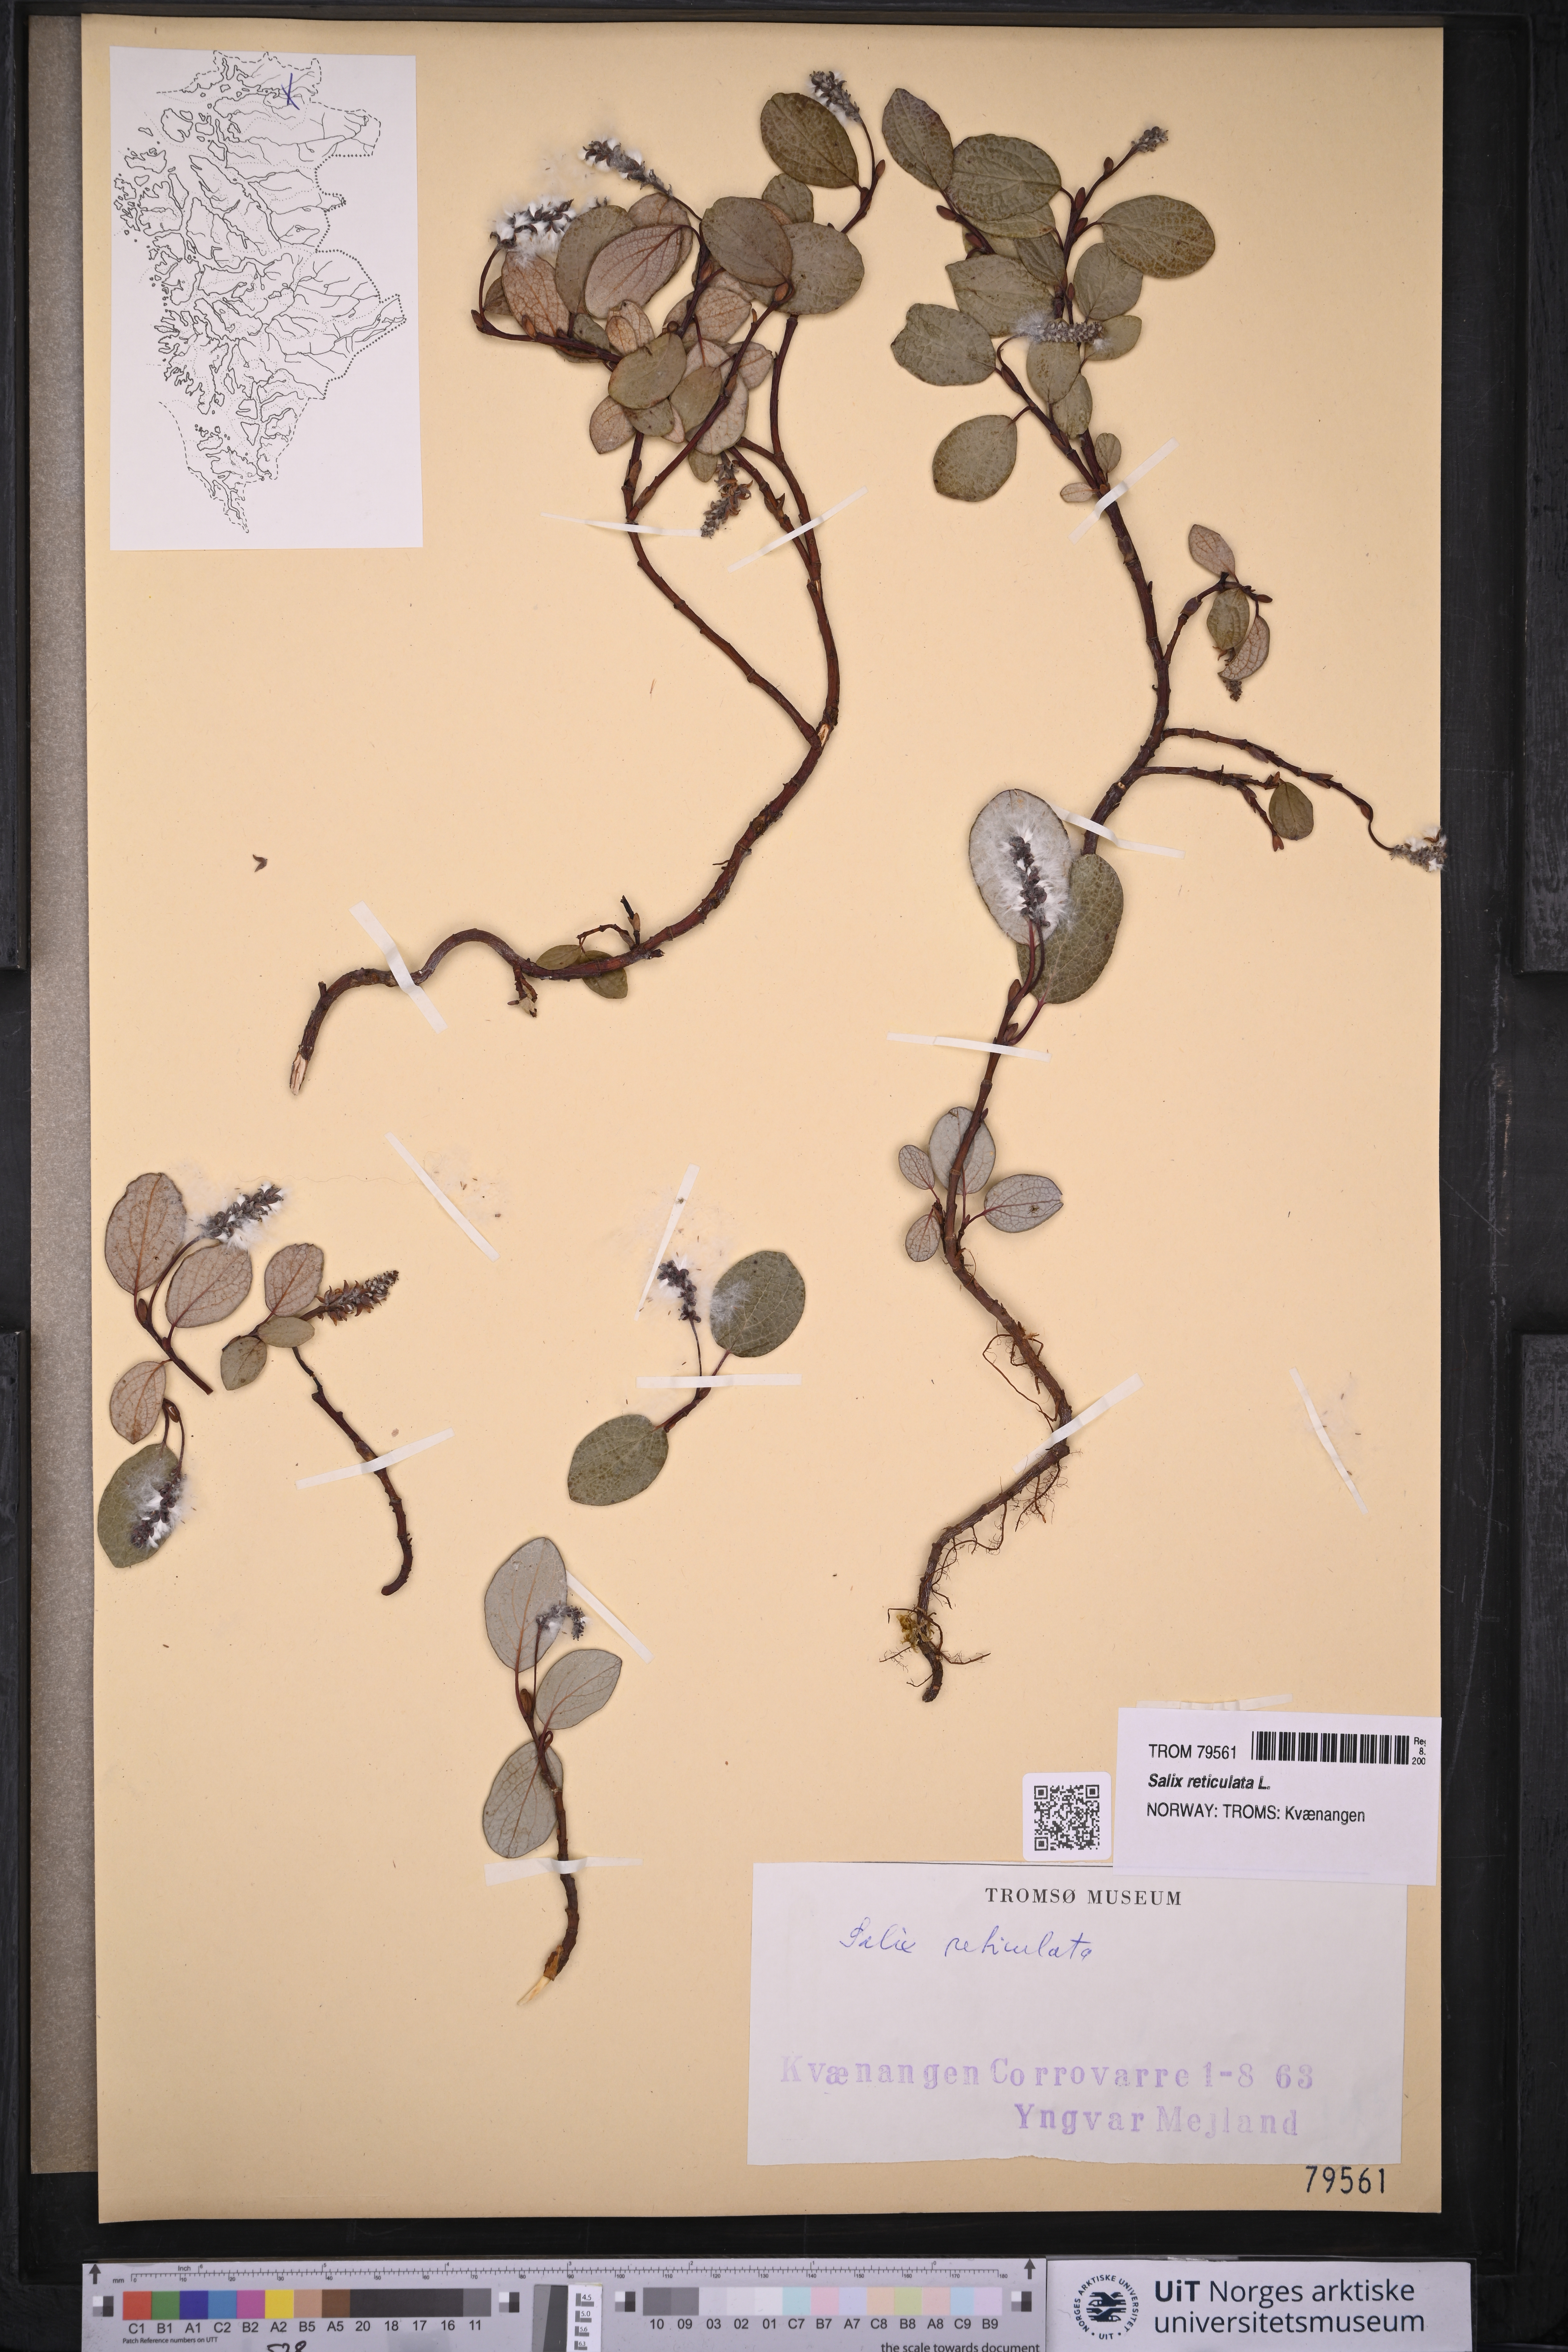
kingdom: Plantae
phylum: Tracheophyta
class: Magnoliopsida
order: Malpighiales
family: Salicaceae
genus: Salix
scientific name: Salix reticulata
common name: Net-leaved willow
